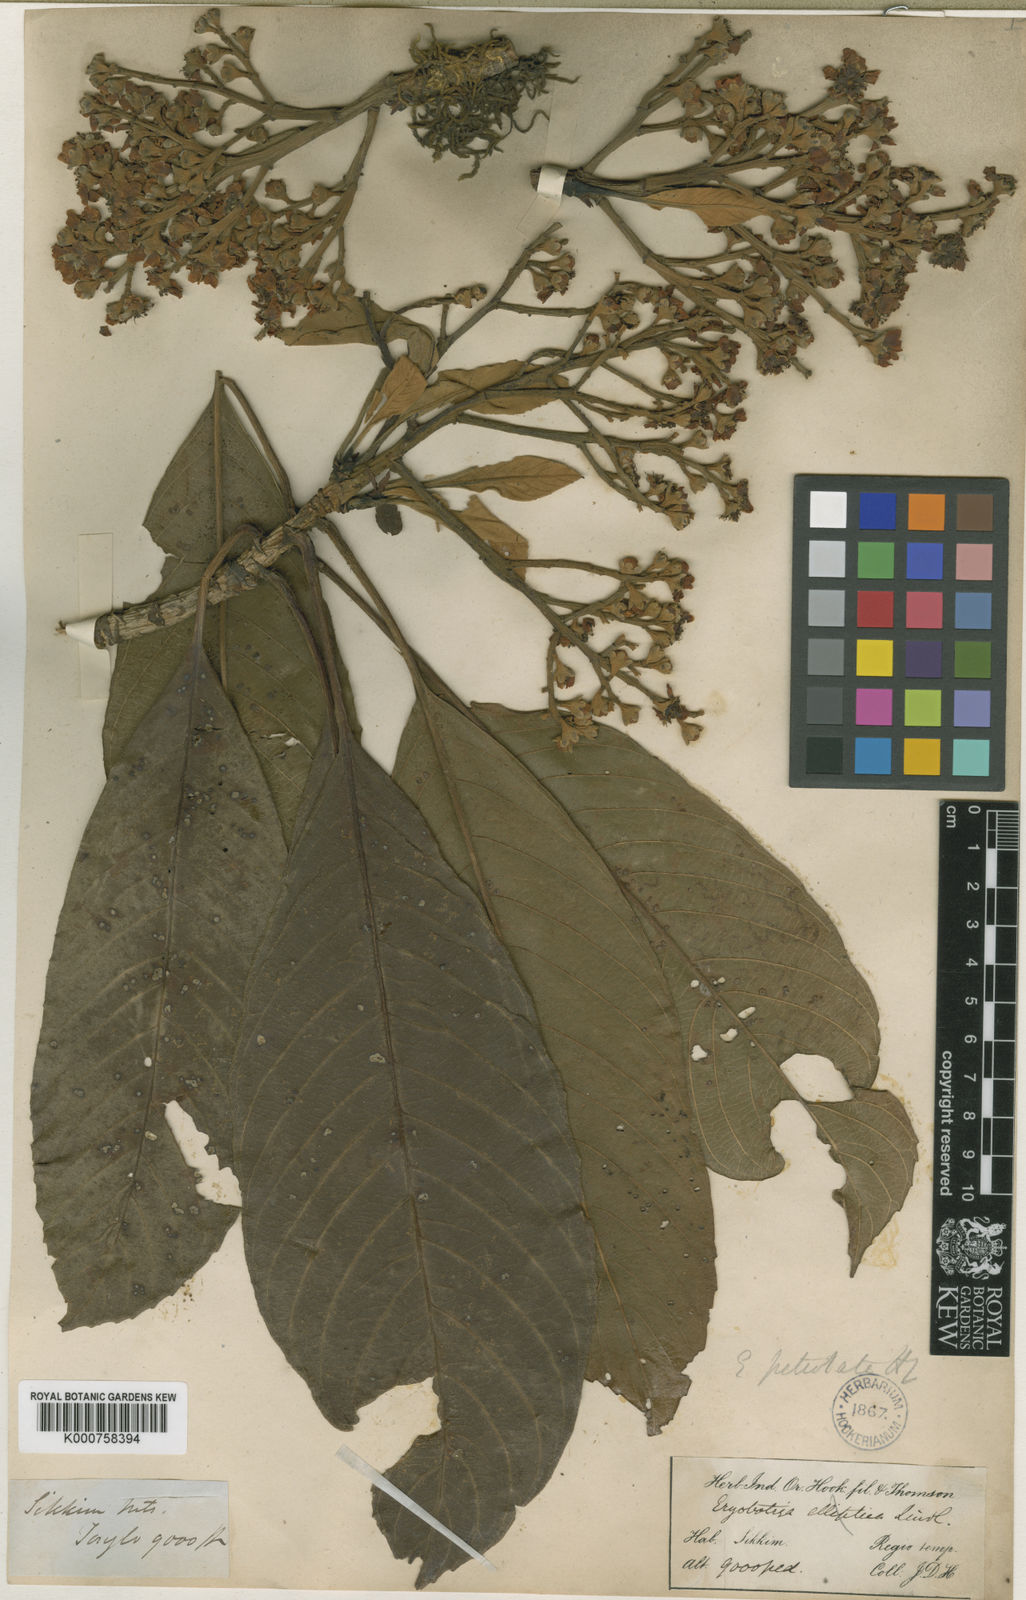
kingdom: Plantae
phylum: Tracheophyta
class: Magnoliopsida
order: Rosales
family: Rosaceae
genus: Rhaphiolepis
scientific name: Rhaphiolepis petiolata
